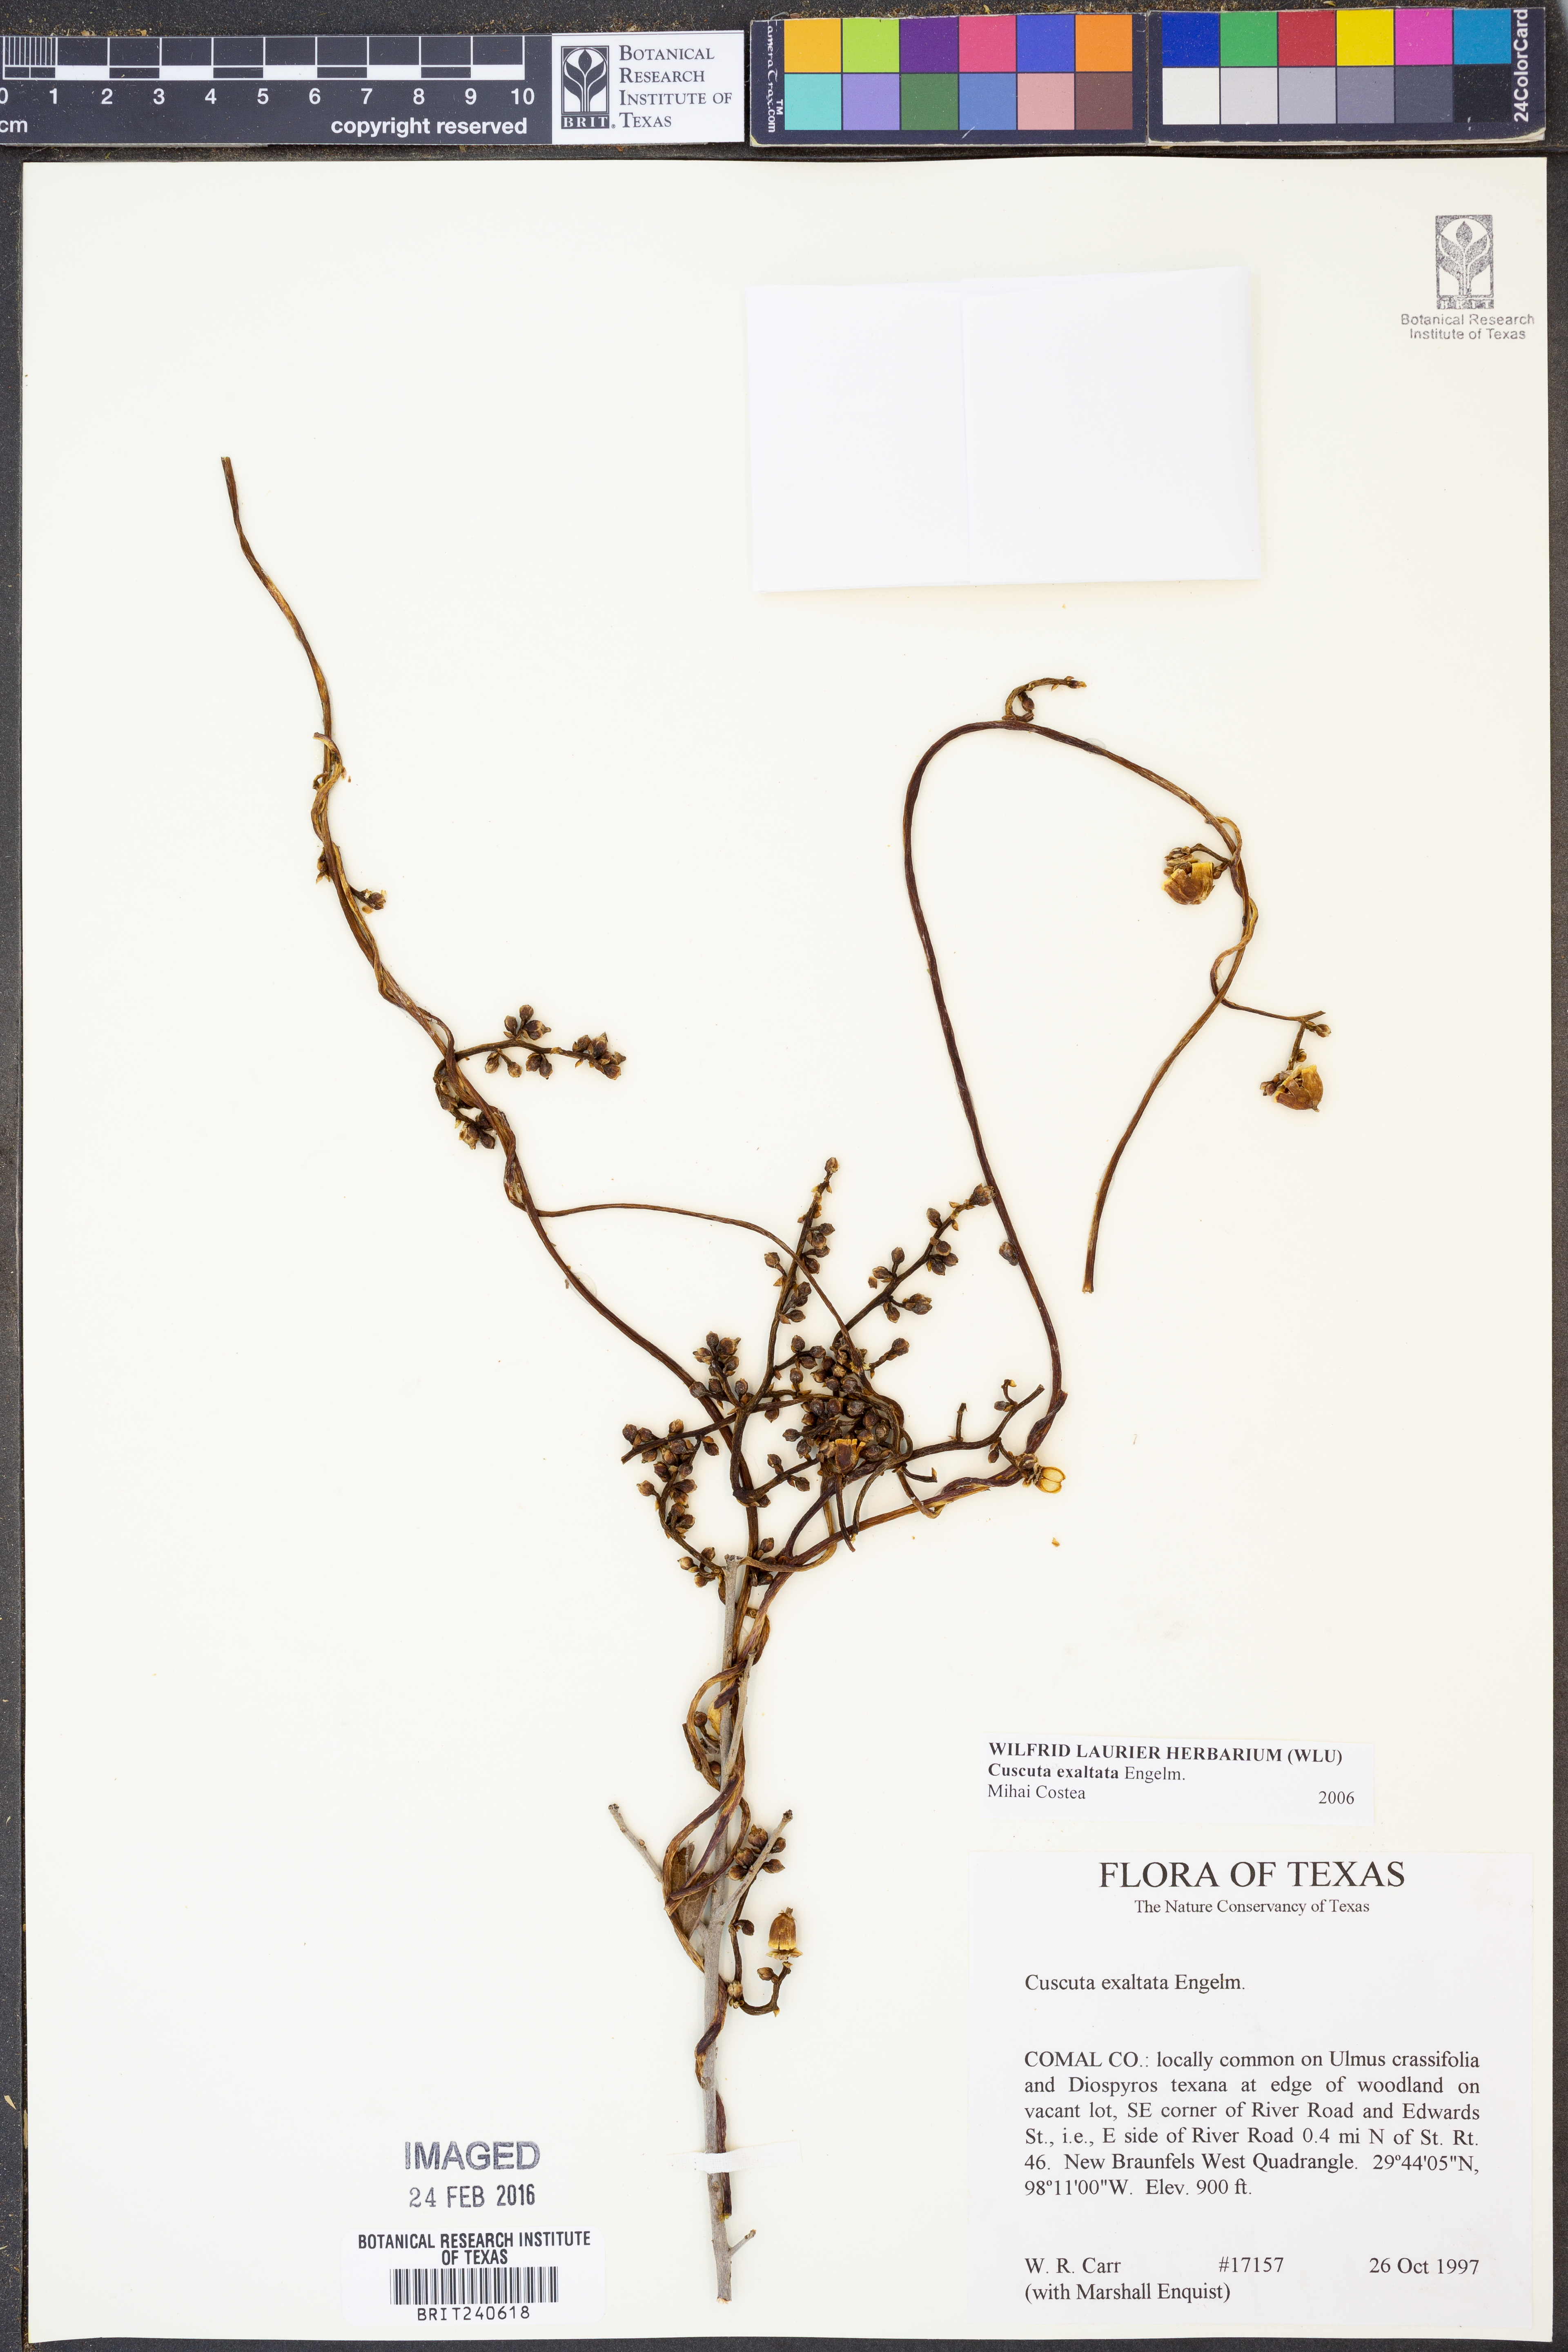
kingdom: Plantae
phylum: Tracheophyta
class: Magnoliopsida
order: Solanales
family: Convolvulaceae
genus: Cuscuta
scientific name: Cuscuta exaltata
